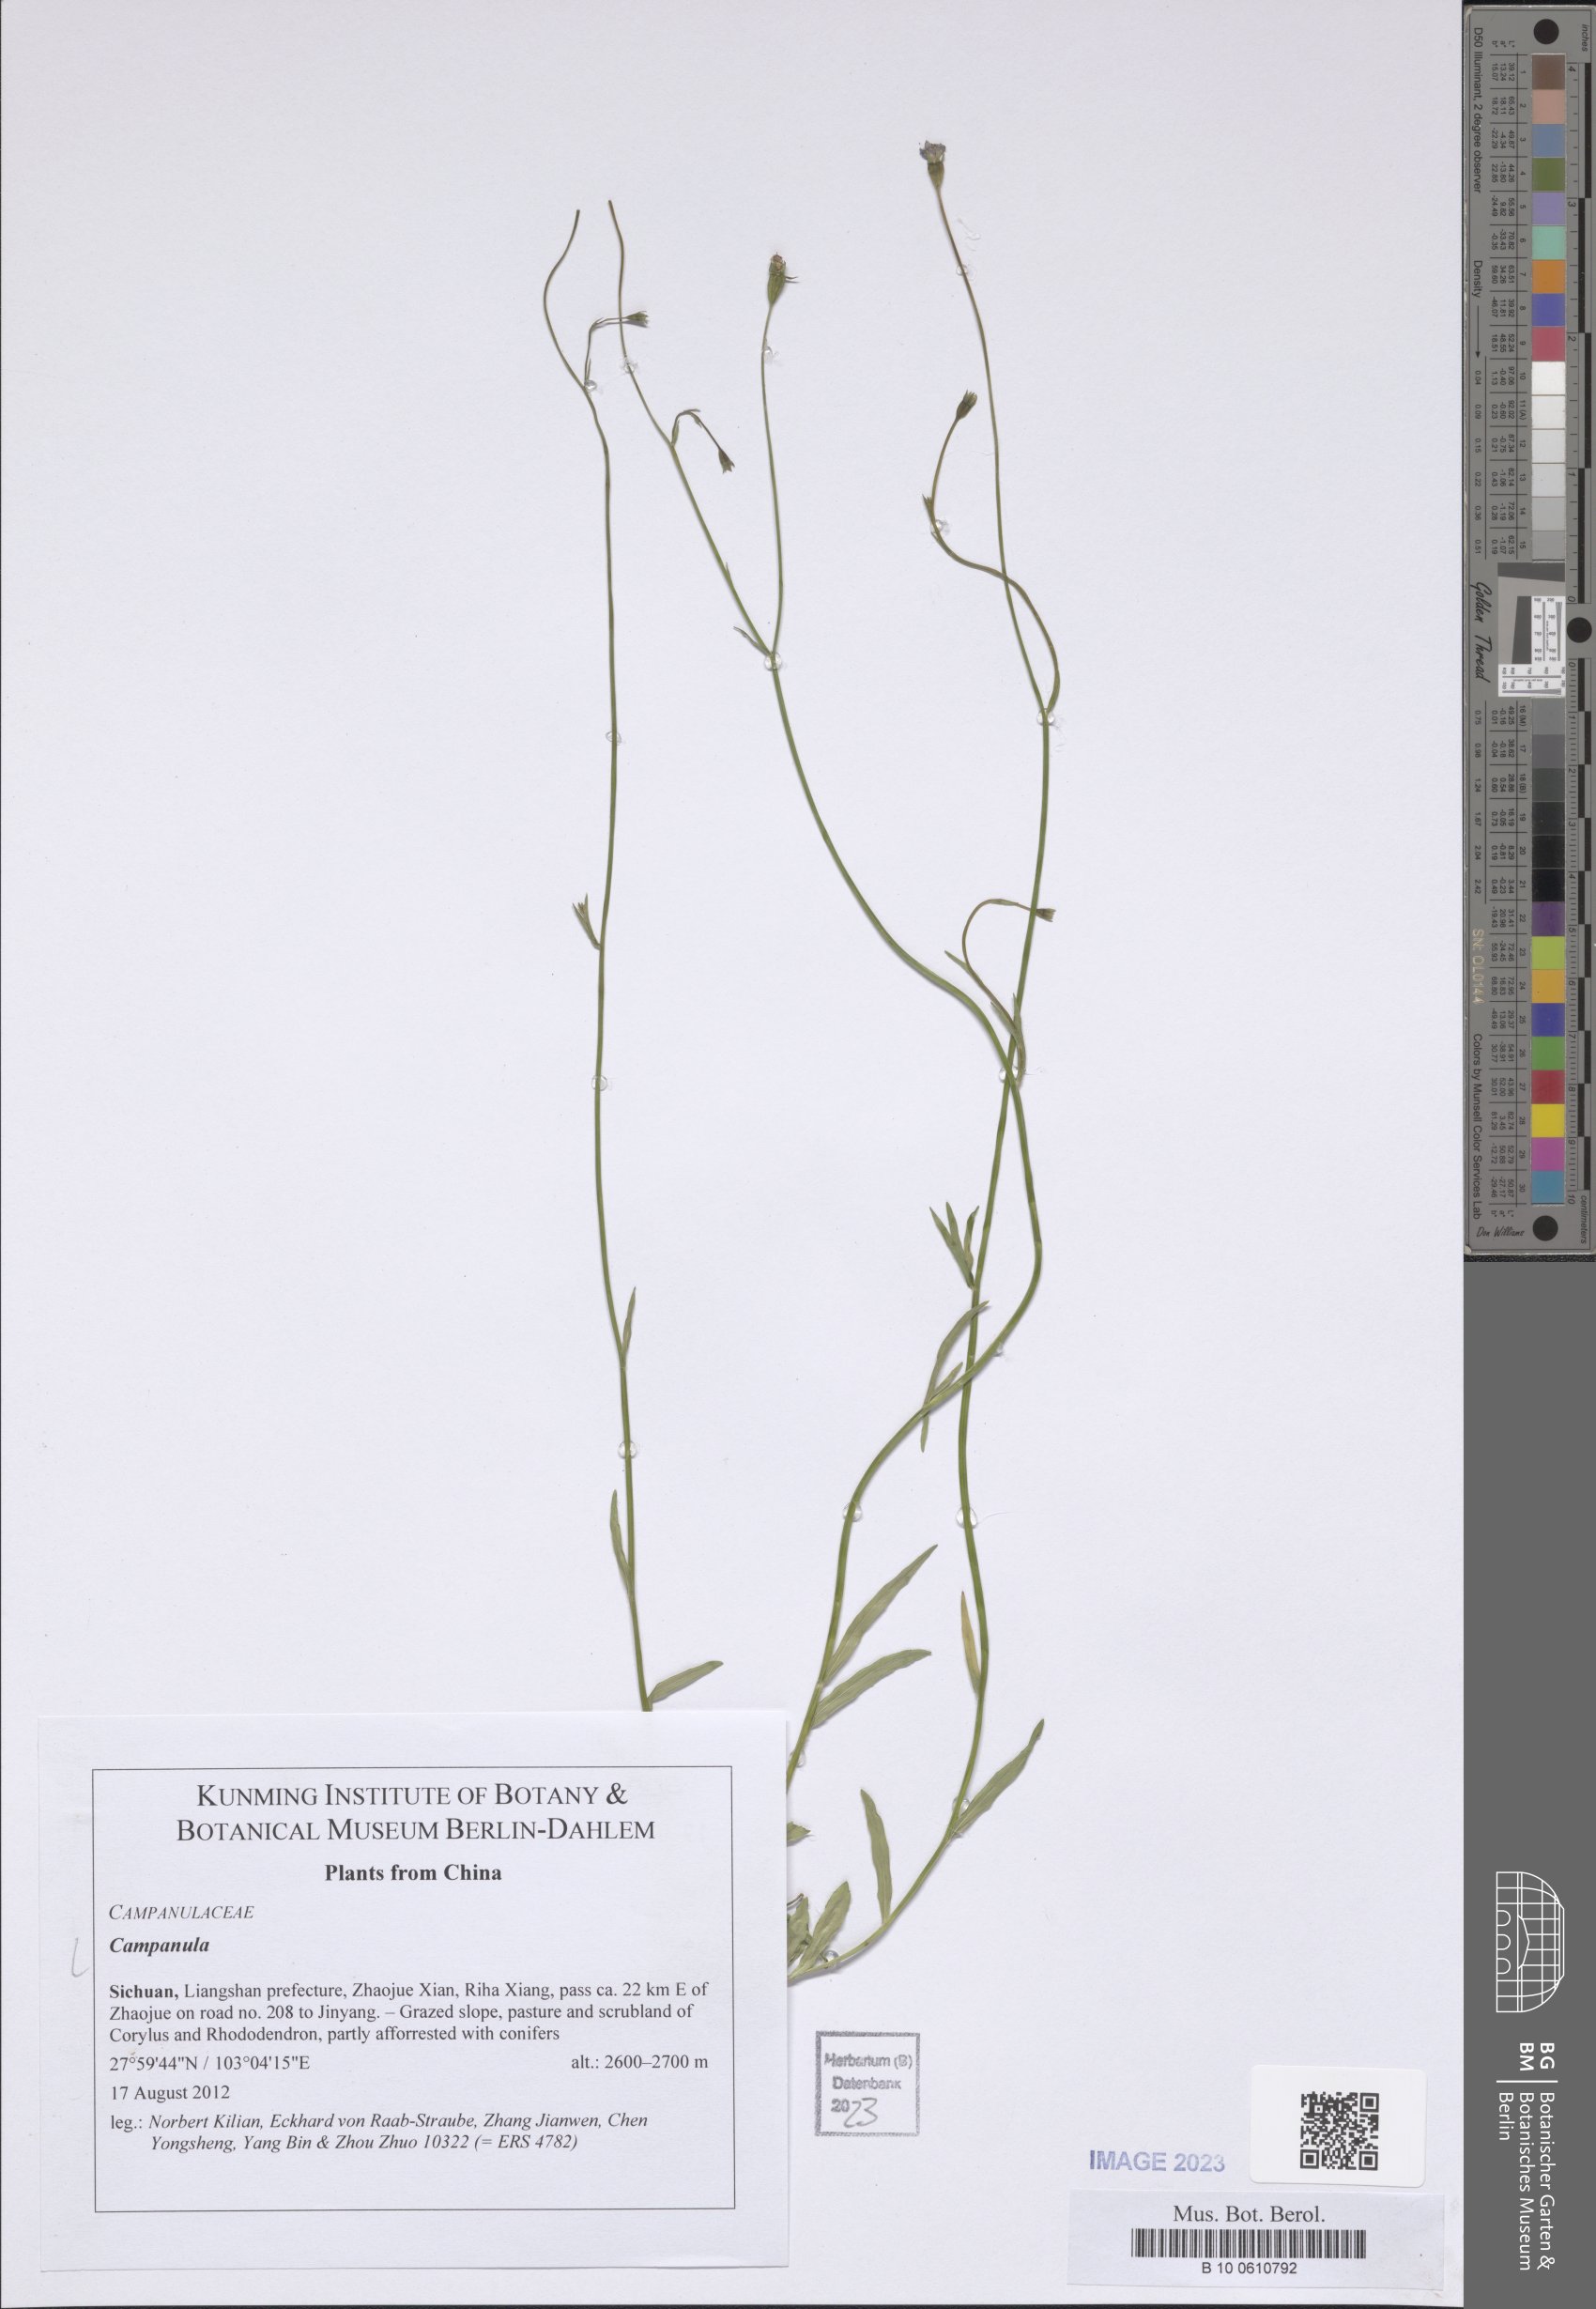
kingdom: Plantae
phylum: Tracheophyta
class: Magnoliopsida
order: Asterales
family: Campanulaceae
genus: Campanula
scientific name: Campanula
